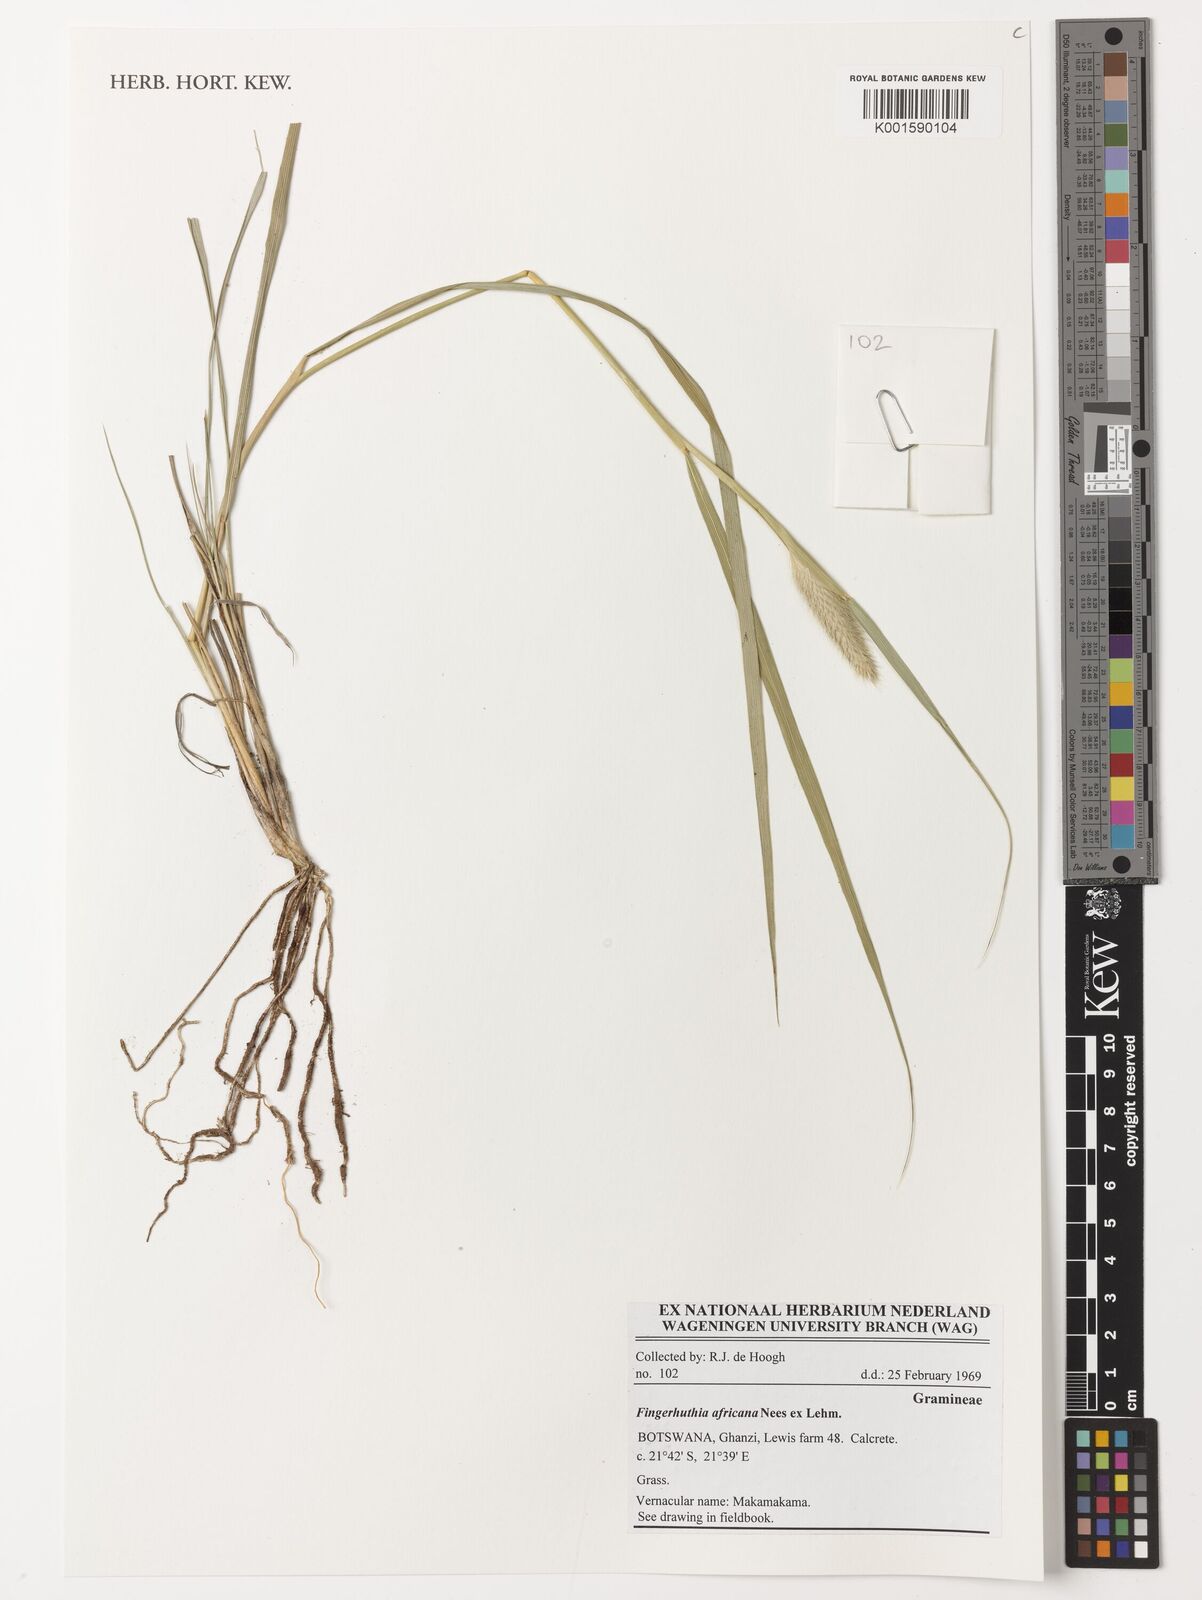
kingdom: Plantae
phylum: Tracheophyta
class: Liliopsida
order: Poales
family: Poaceae
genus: Fingerhuthia
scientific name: Fingerhuthia africana
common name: Zulu fescue
